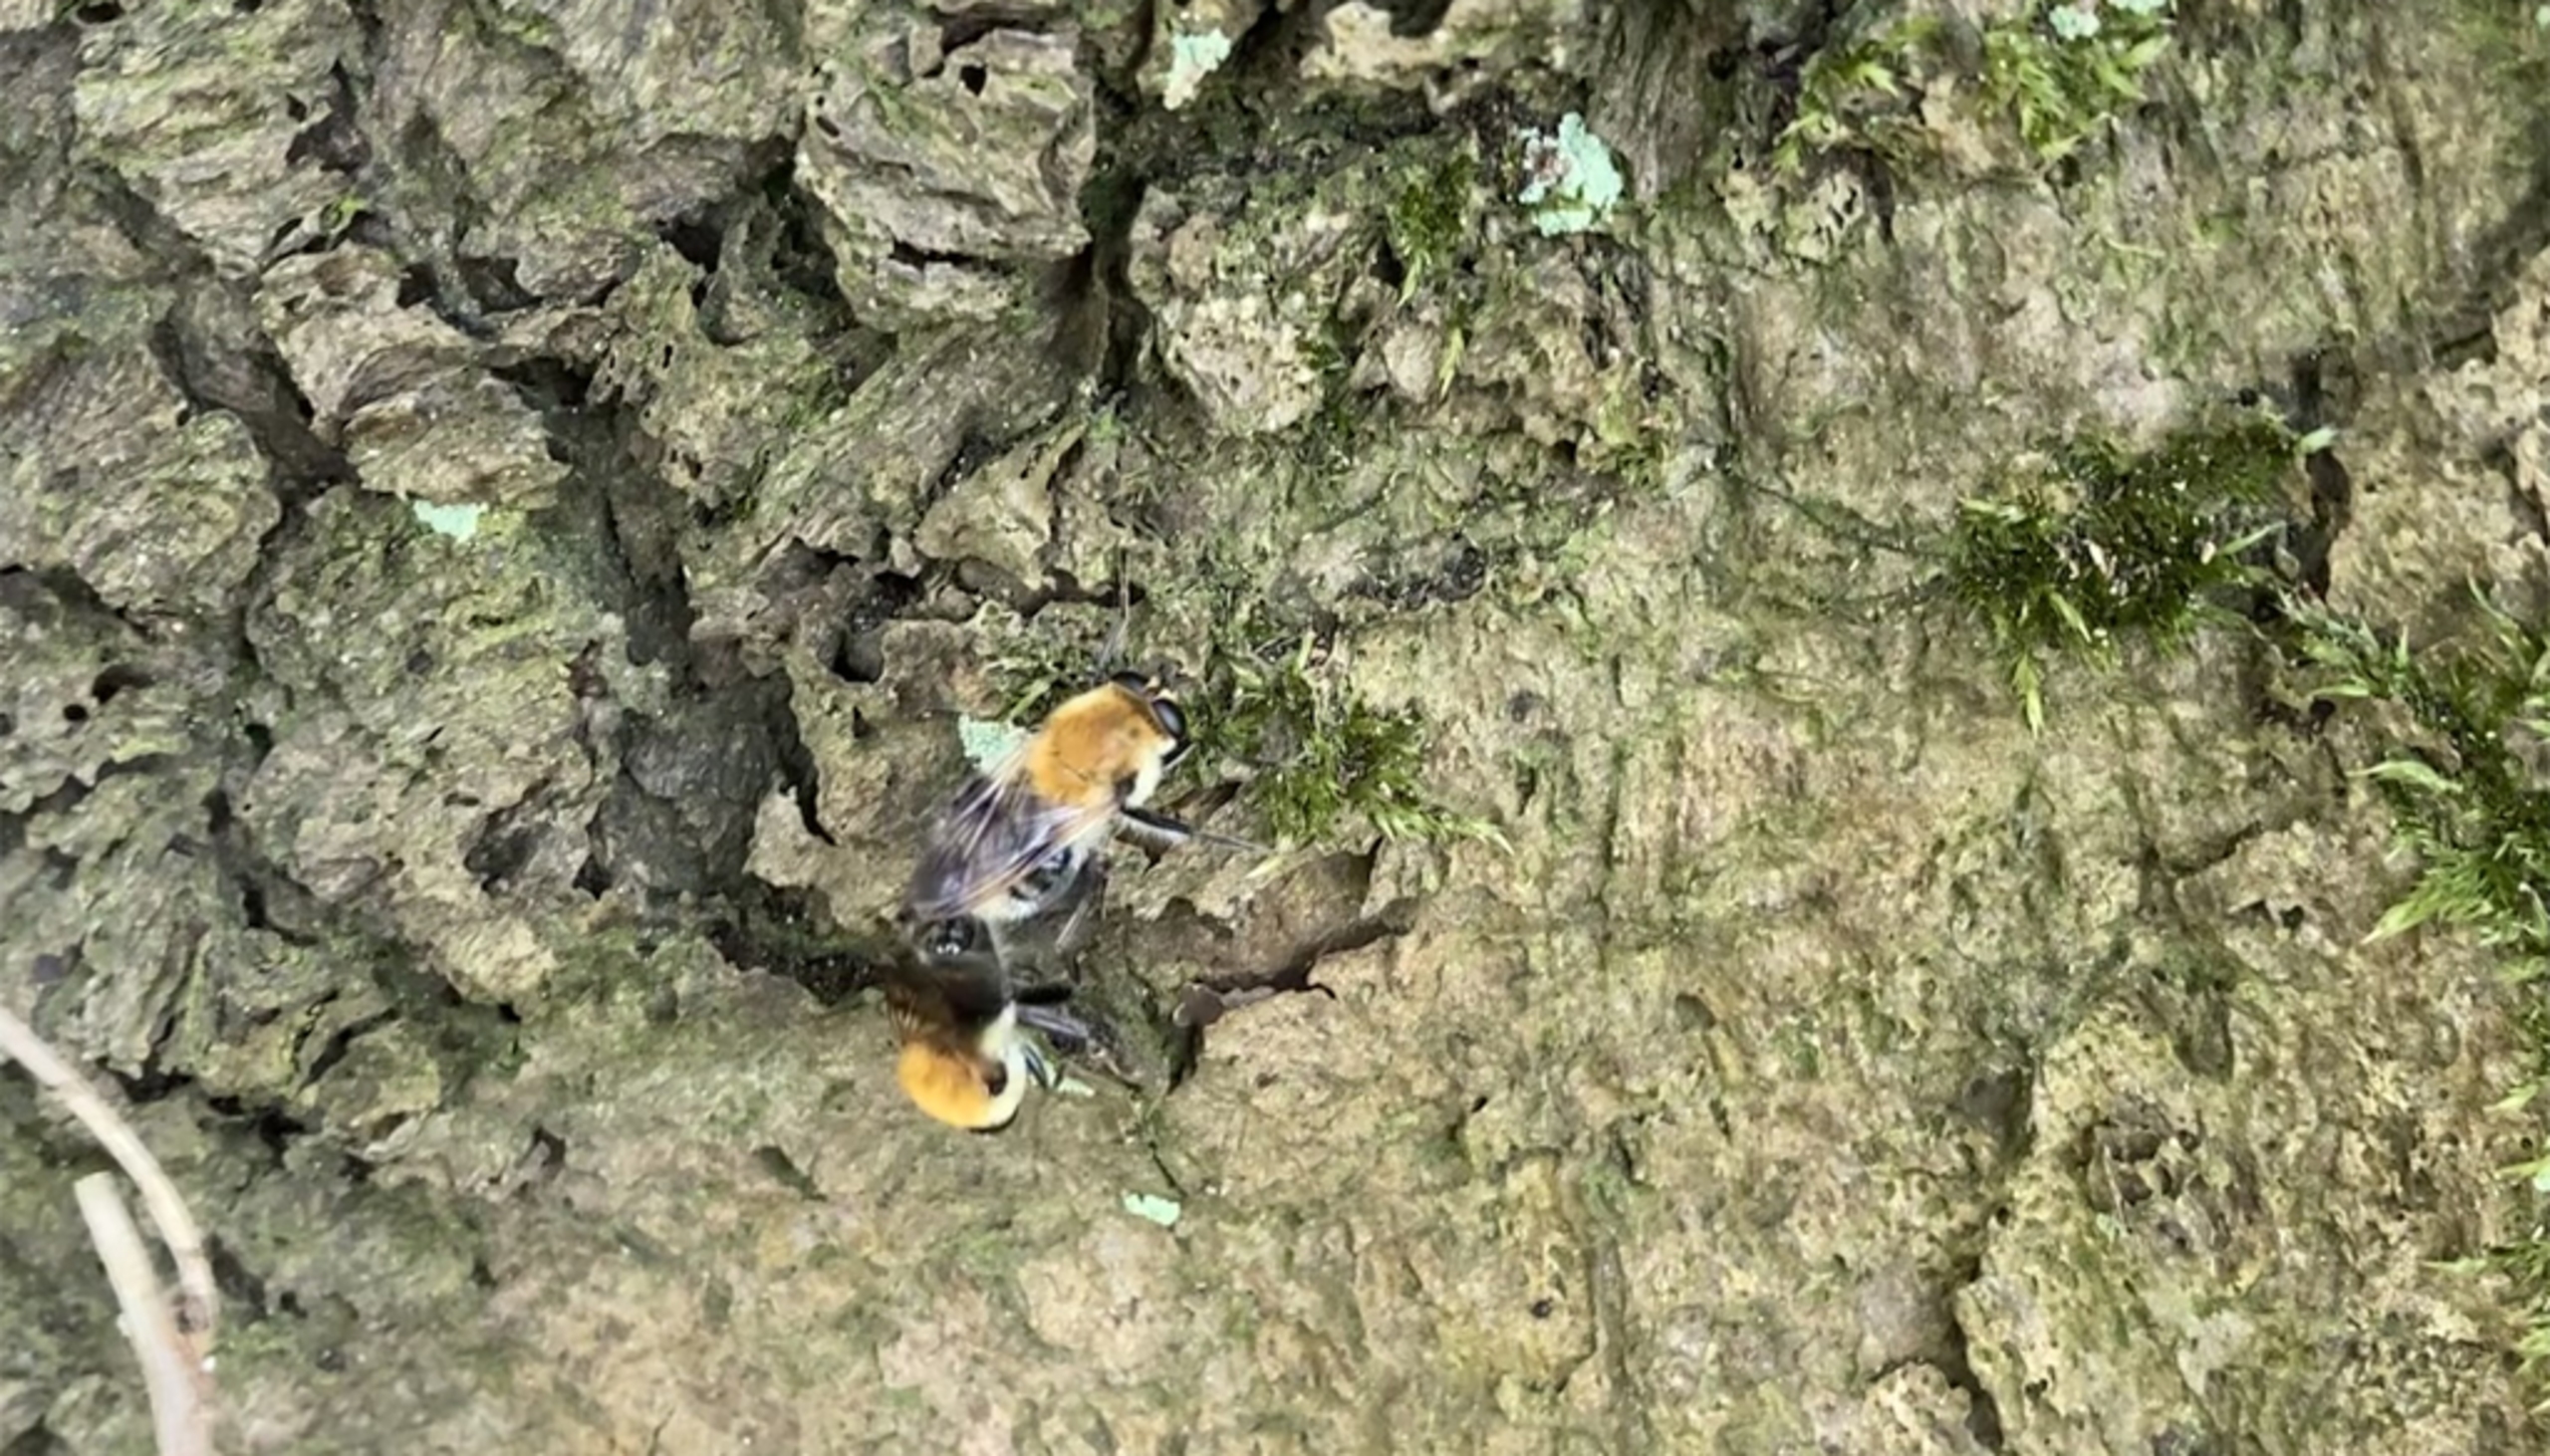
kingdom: Animalia
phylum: Arthropoda
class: Insecta
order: Diptera
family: Syrphidae
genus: Criorhina
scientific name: Criorhina floccosa
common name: Uldhåret pelssvirreflue
